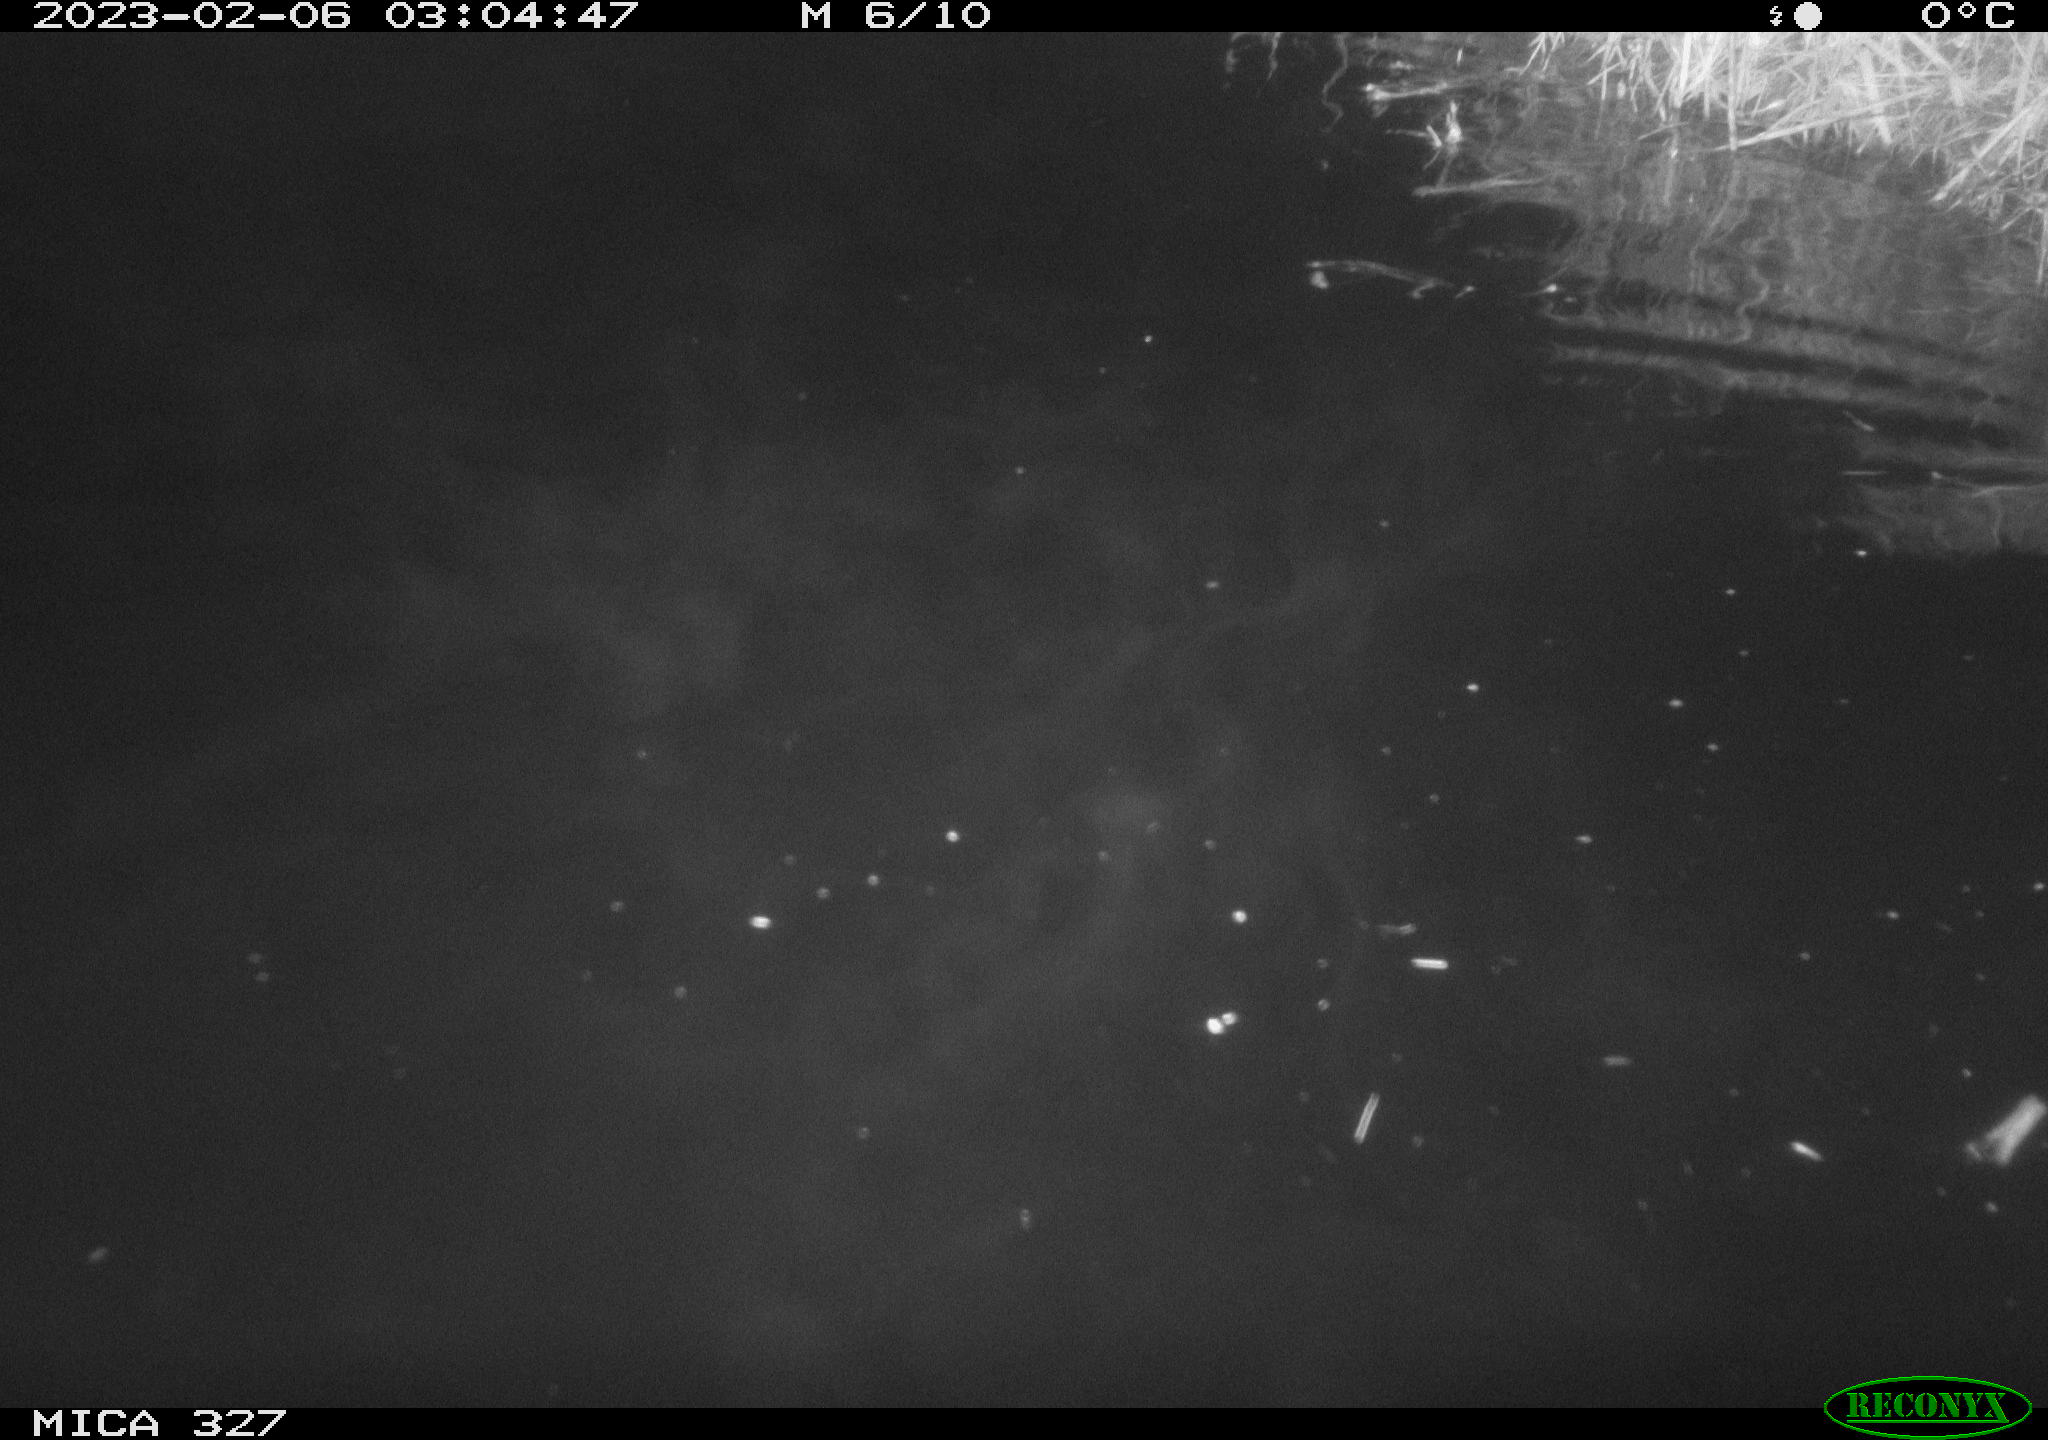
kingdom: Animalia
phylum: Chordata
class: Mammalia
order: Rodentia
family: Cricetidae
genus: Ondatra
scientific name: Ondatra zibethicus
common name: Muskrat
